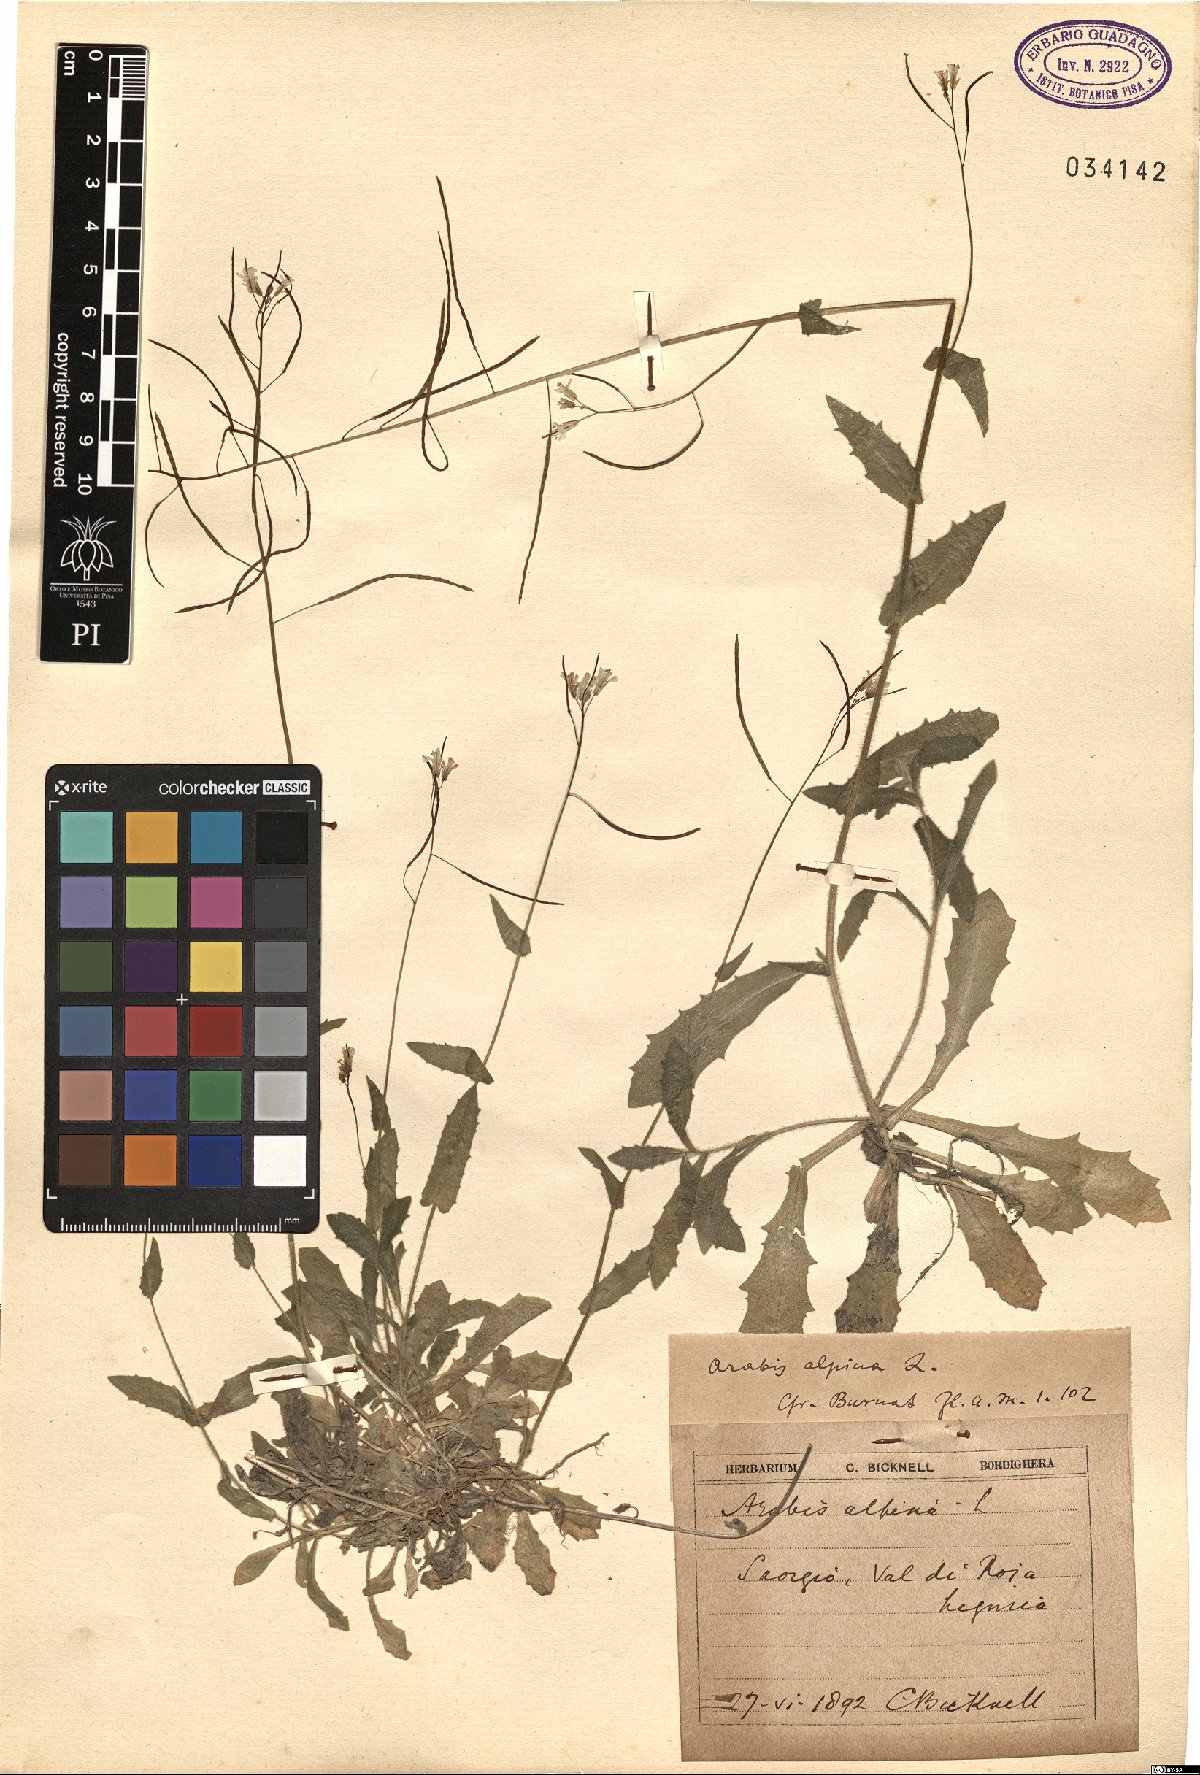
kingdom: Plantae
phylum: Tracheophyta
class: Magnoliopsida
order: Brassicales
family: Brassicaceae
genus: Arabis
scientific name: Arabis alpina
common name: Alpine rock-cress
